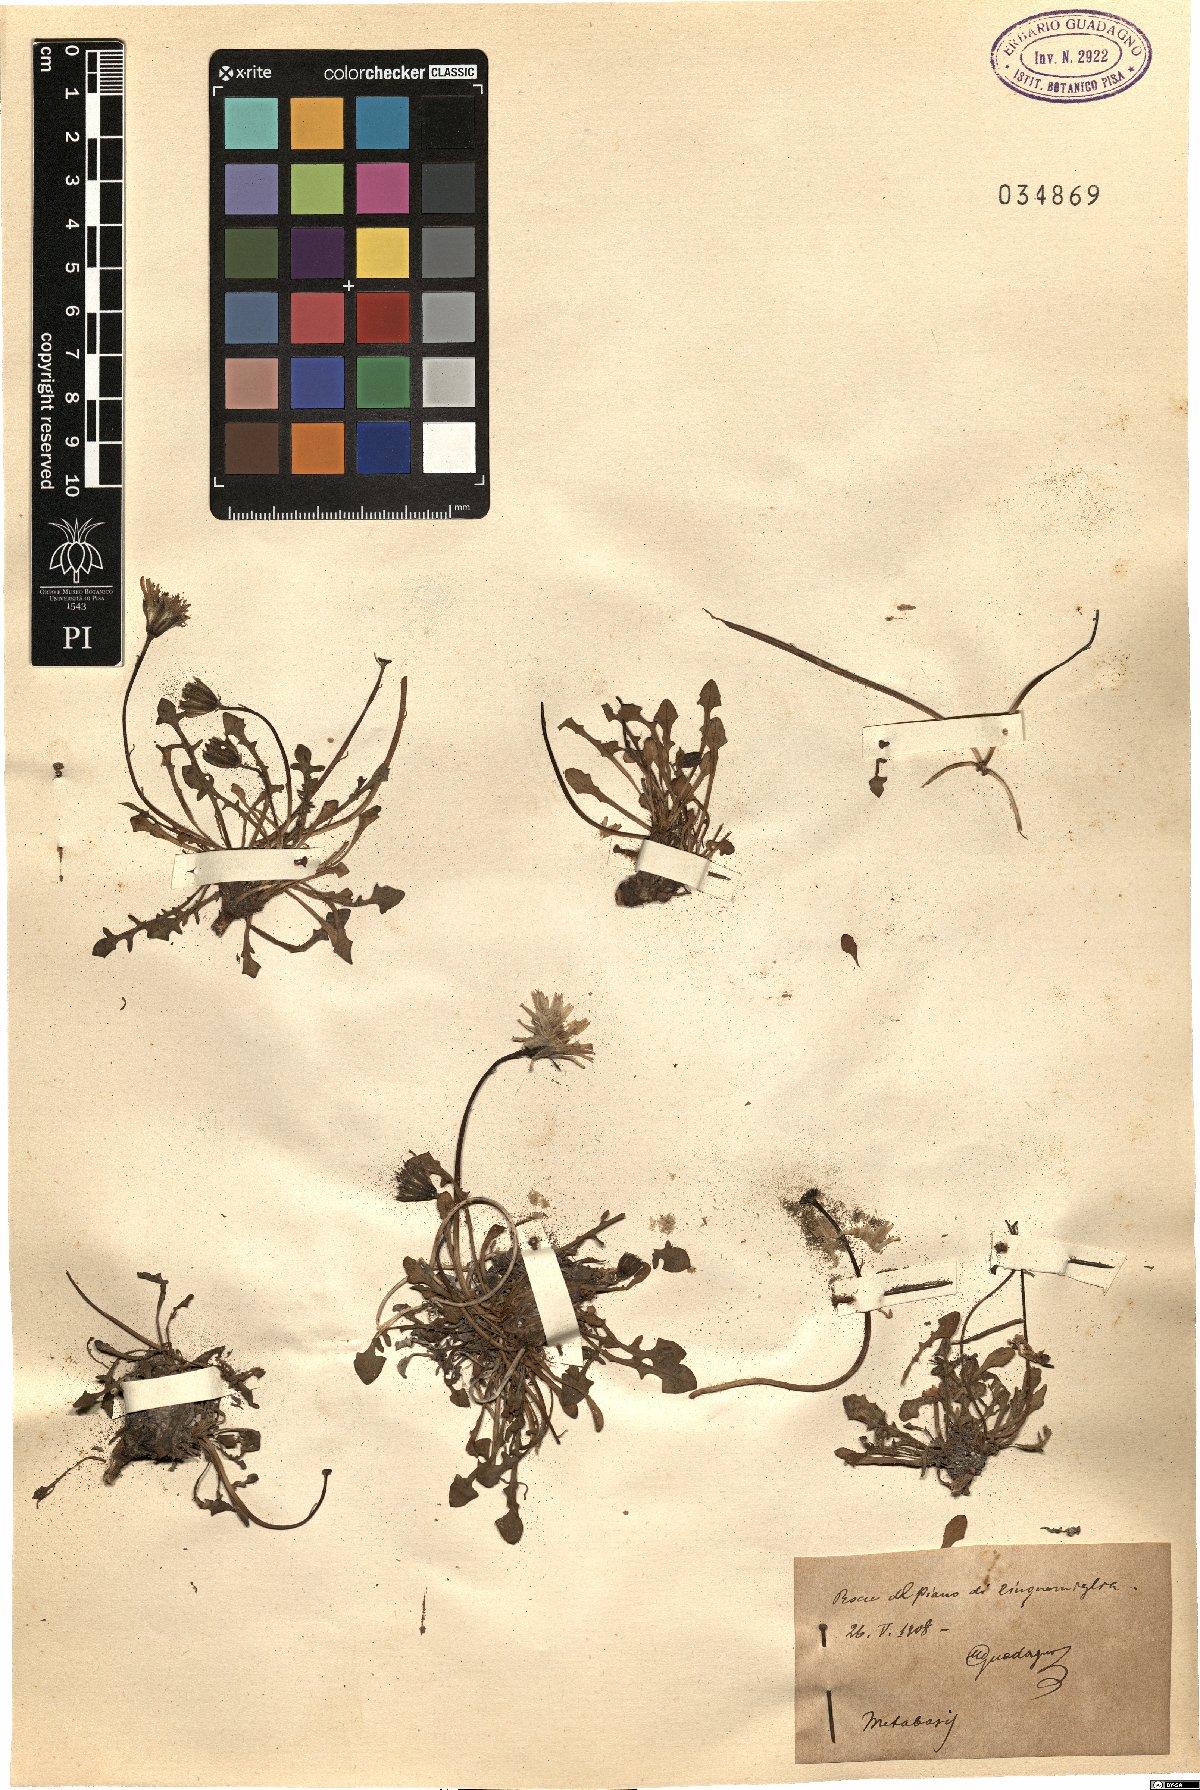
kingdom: Animalia
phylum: Arthropoda
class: Insecta
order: Diptera
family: Stratiomyidae
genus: Metabasis
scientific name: Metabasis
